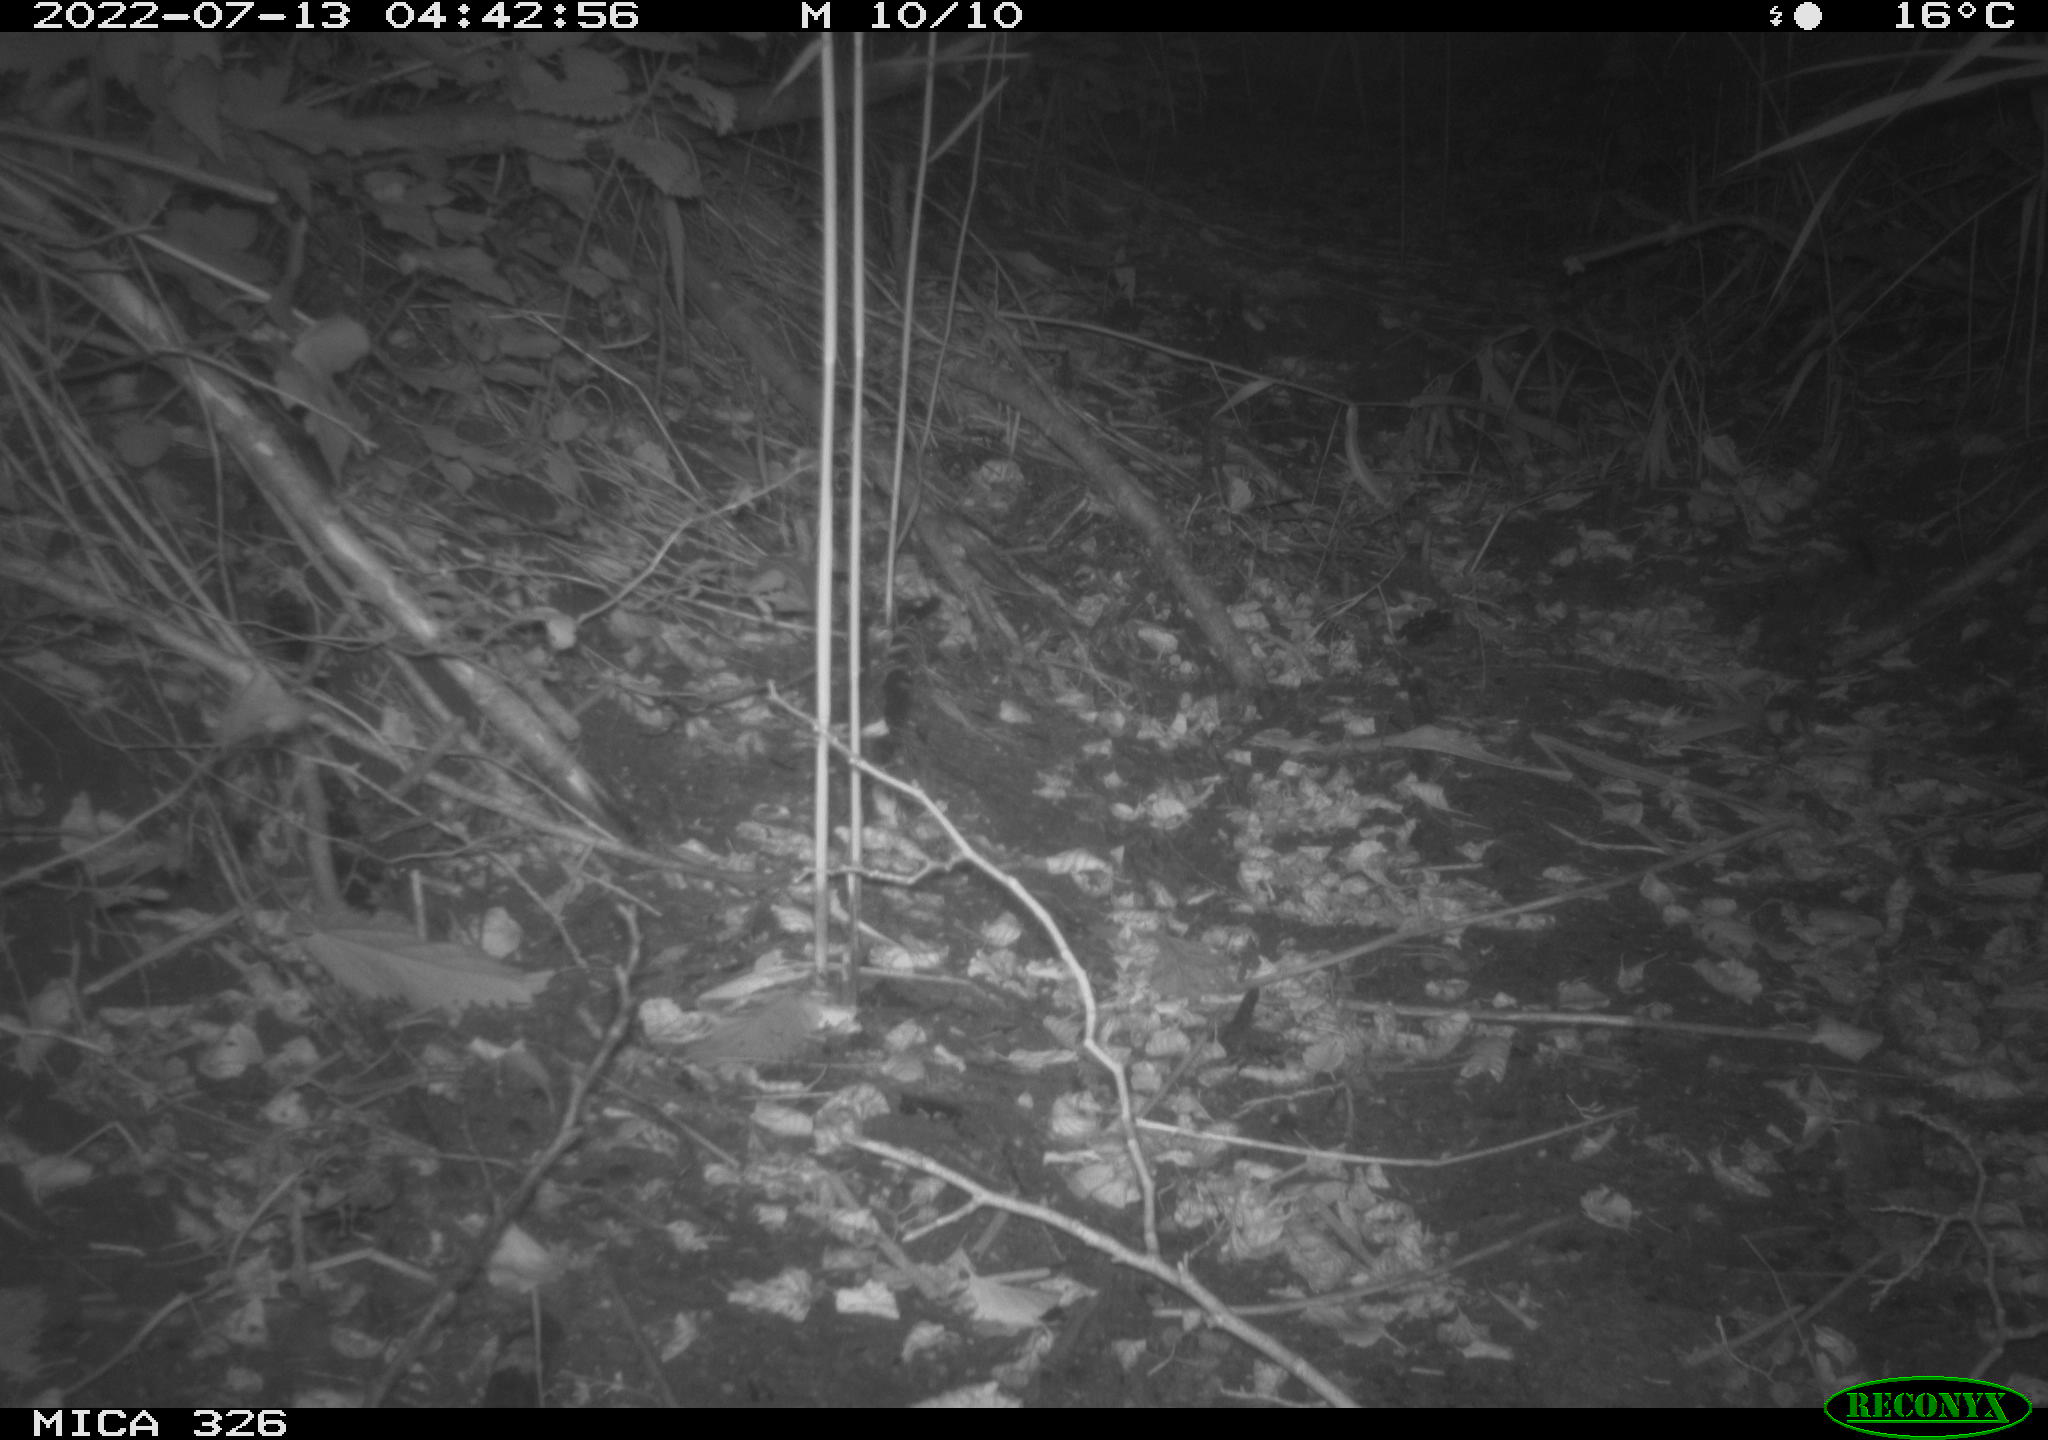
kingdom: Animalia
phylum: Chordata
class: Mammalia
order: Rodentia
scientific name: Rodentia
